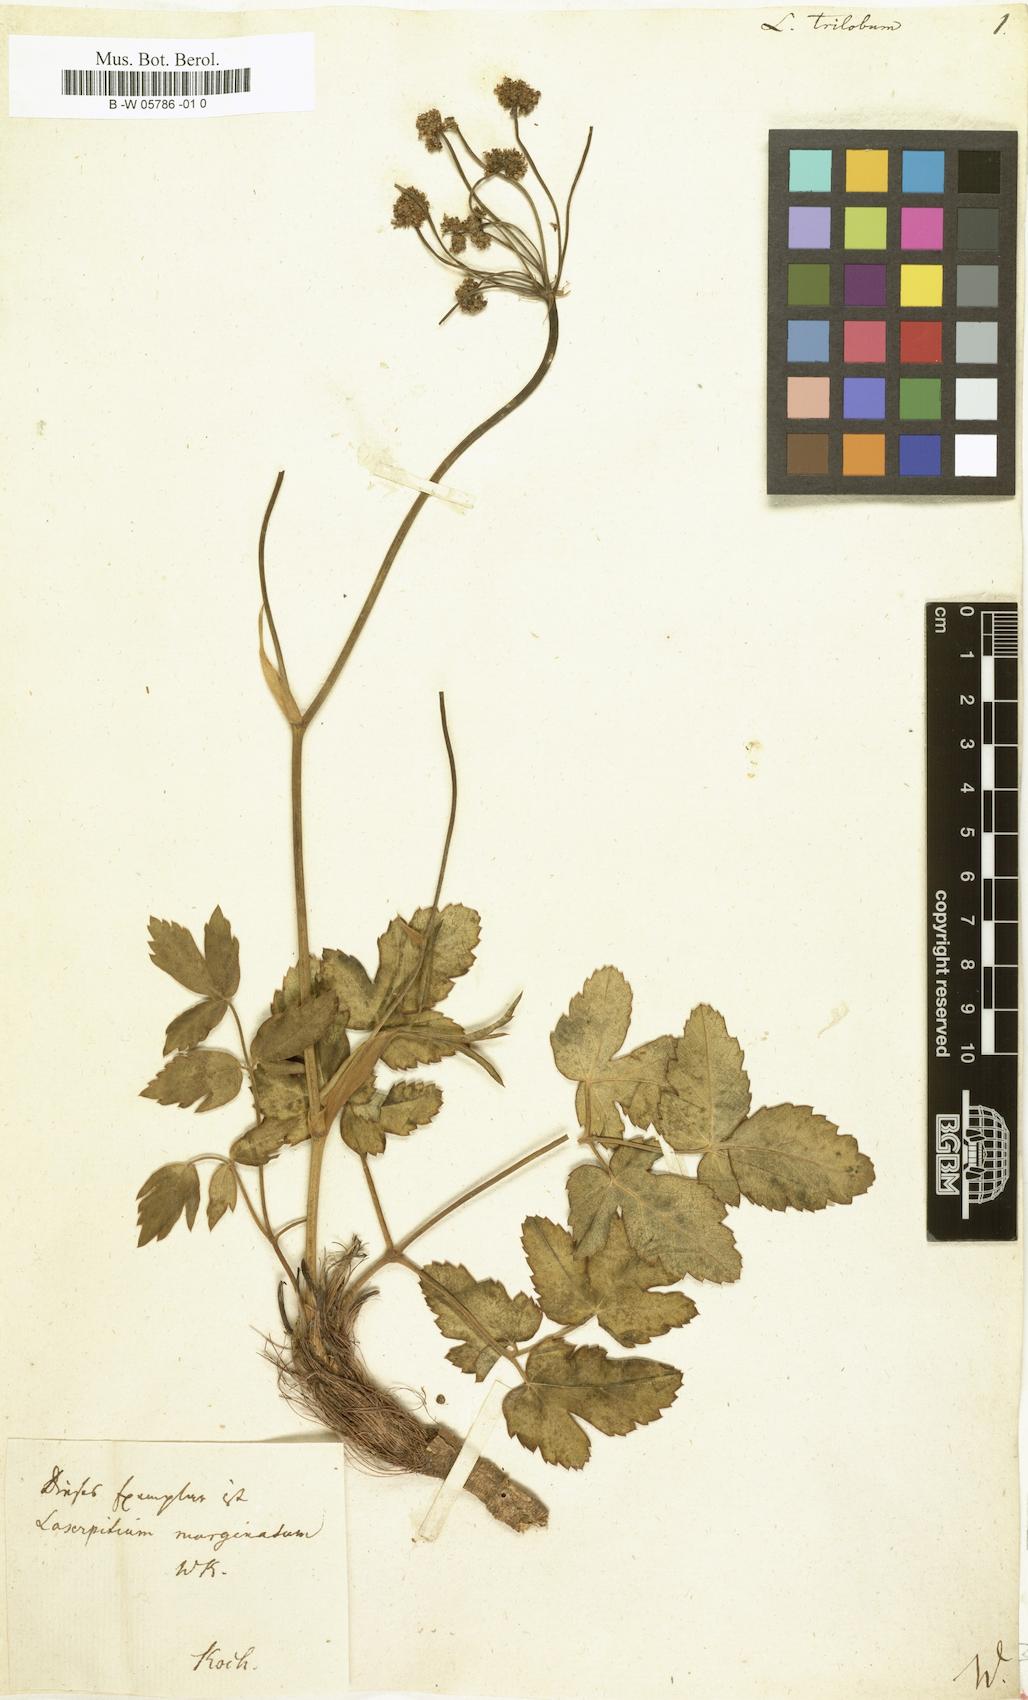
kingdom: Plantae
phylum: Tracheophyta
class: Magnoliopsida
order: Apiales
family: Apiaceae
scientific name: Apiaceae
